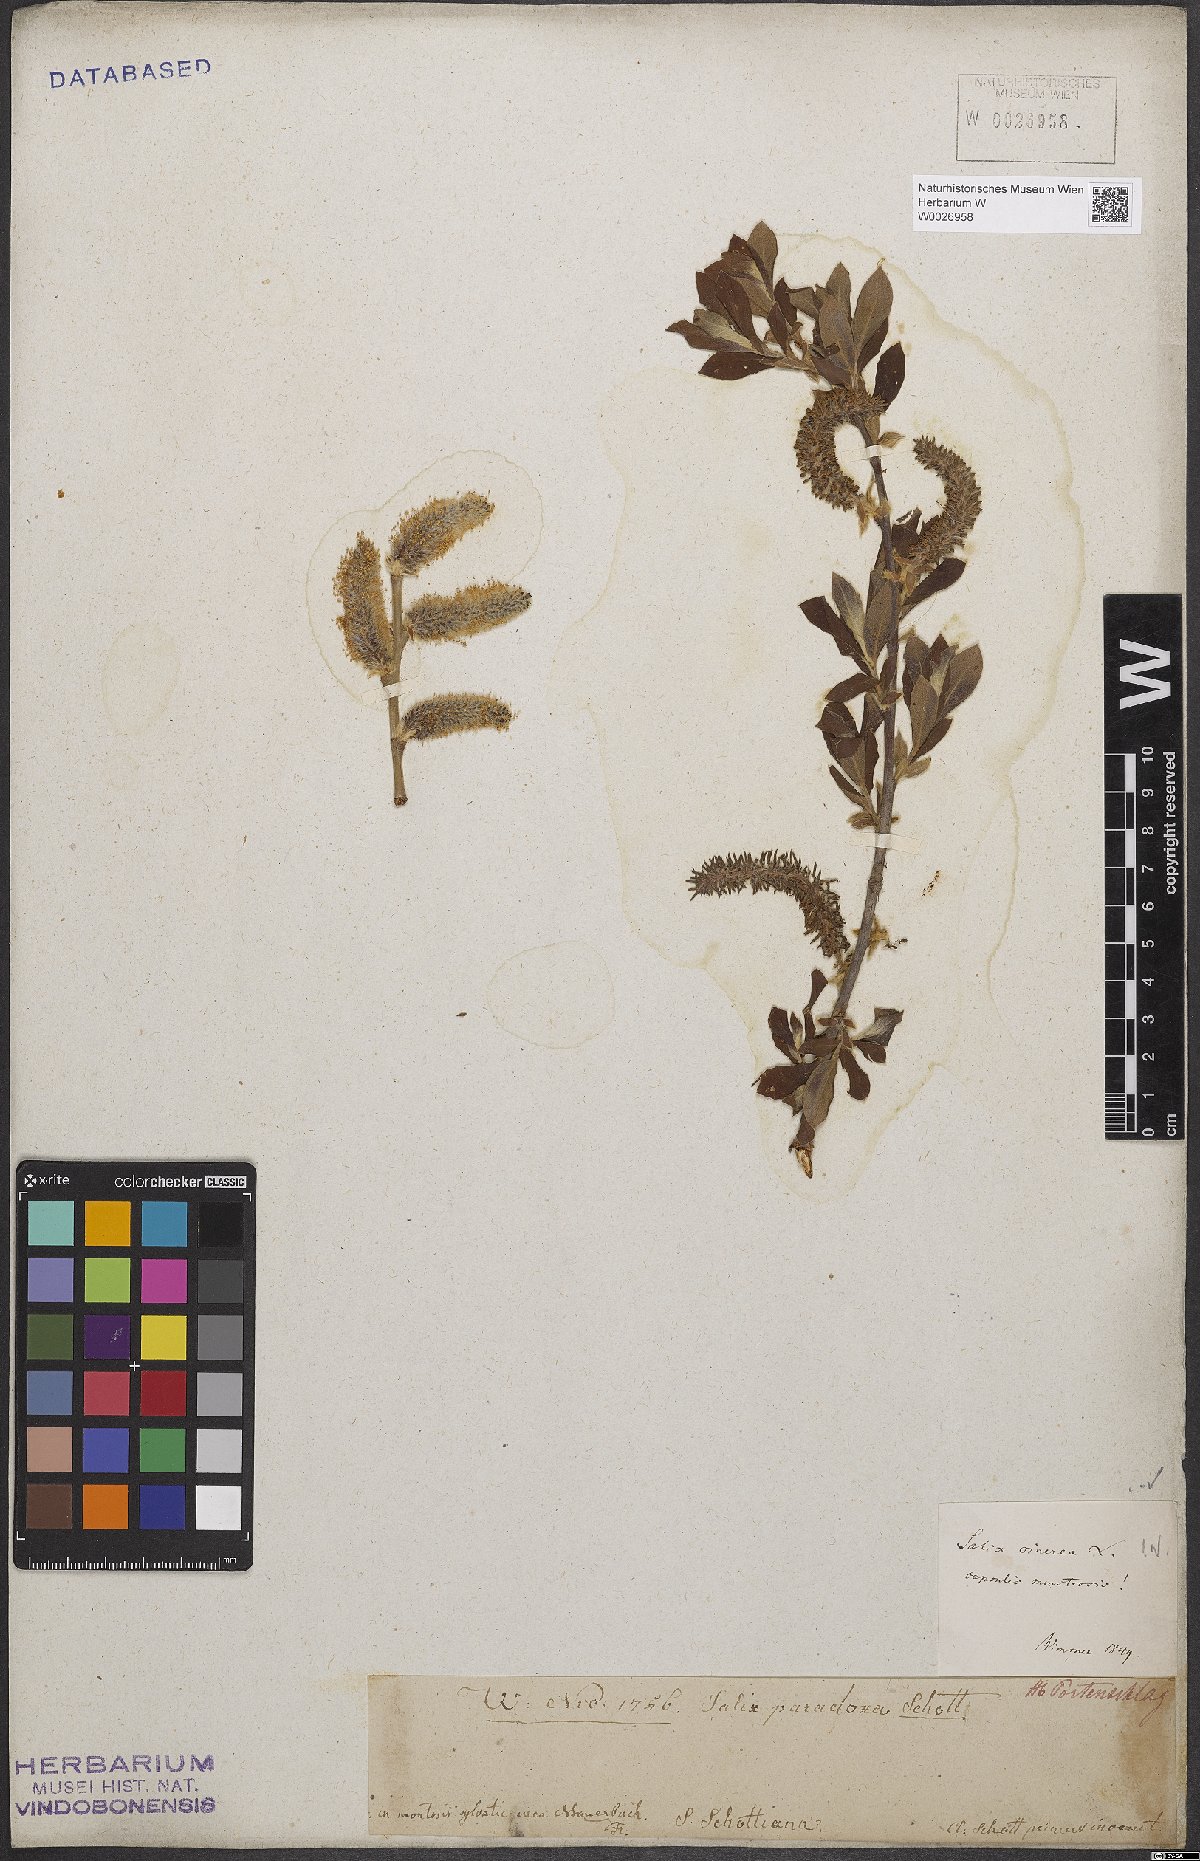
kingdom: Plantae
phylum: Tracheophyta
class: Magnoliopsida
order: Malpighiales
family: Salicaceae
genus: Salix
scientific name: Salix cinerea
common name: Common sallow
